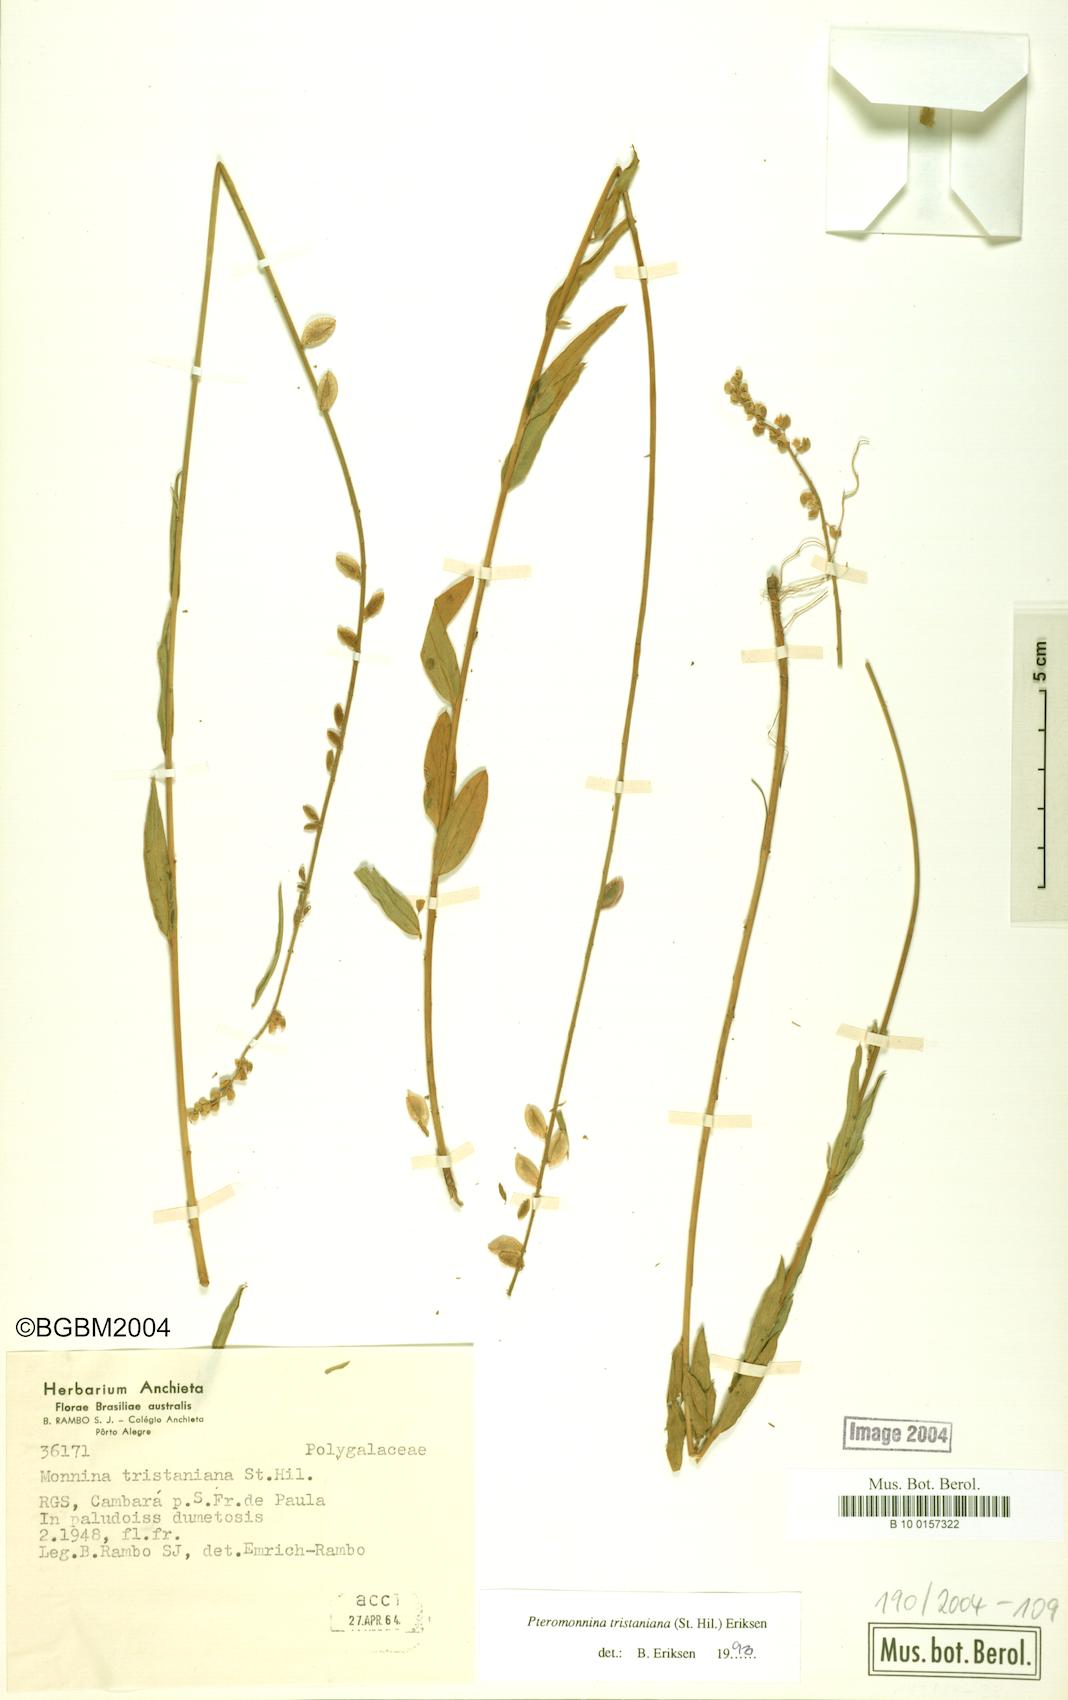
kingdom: Plantae
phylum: Tracheophyta
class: Magnoliopsida
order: Fabales
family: Polygalaceae
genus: Monnina
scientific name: Monnina tristaniana
